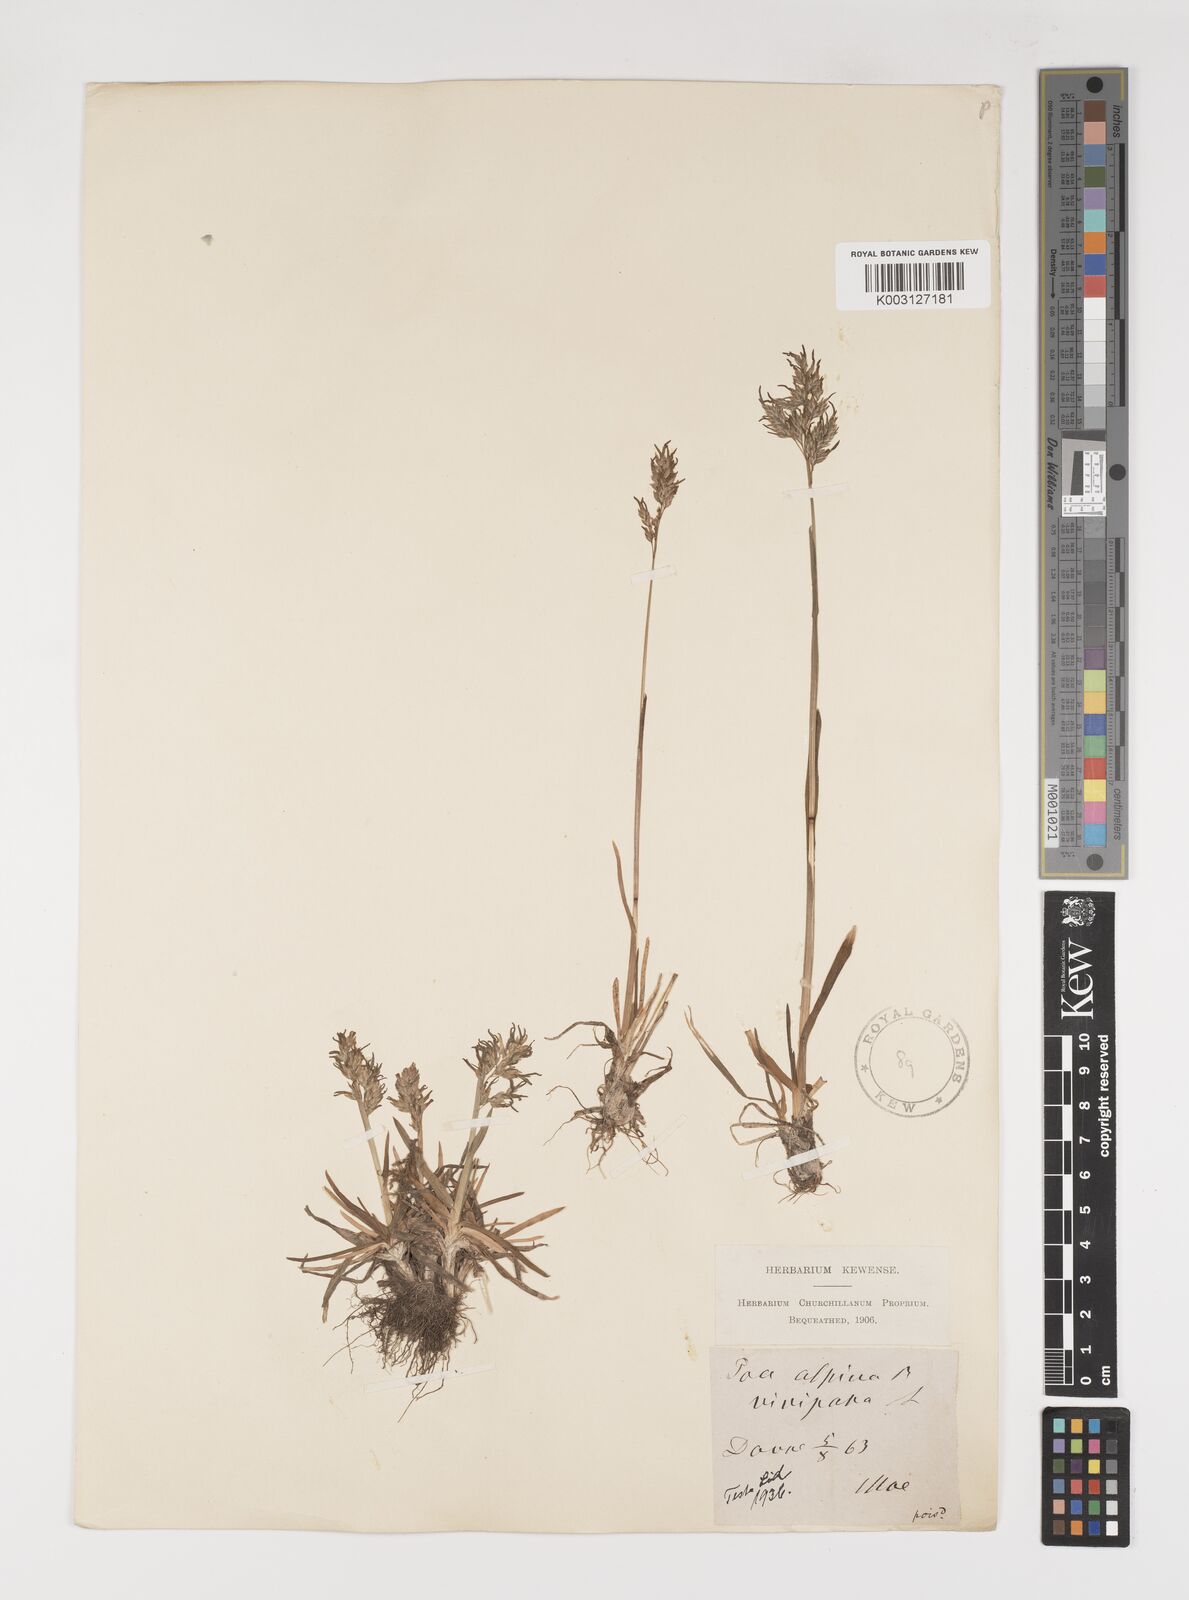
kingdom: Plantae
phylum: Tracheophyta
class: Liliopsida
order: Poales
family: Poaceae
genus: Poa
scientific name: Poa alpina
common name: Alpine bluegrass
